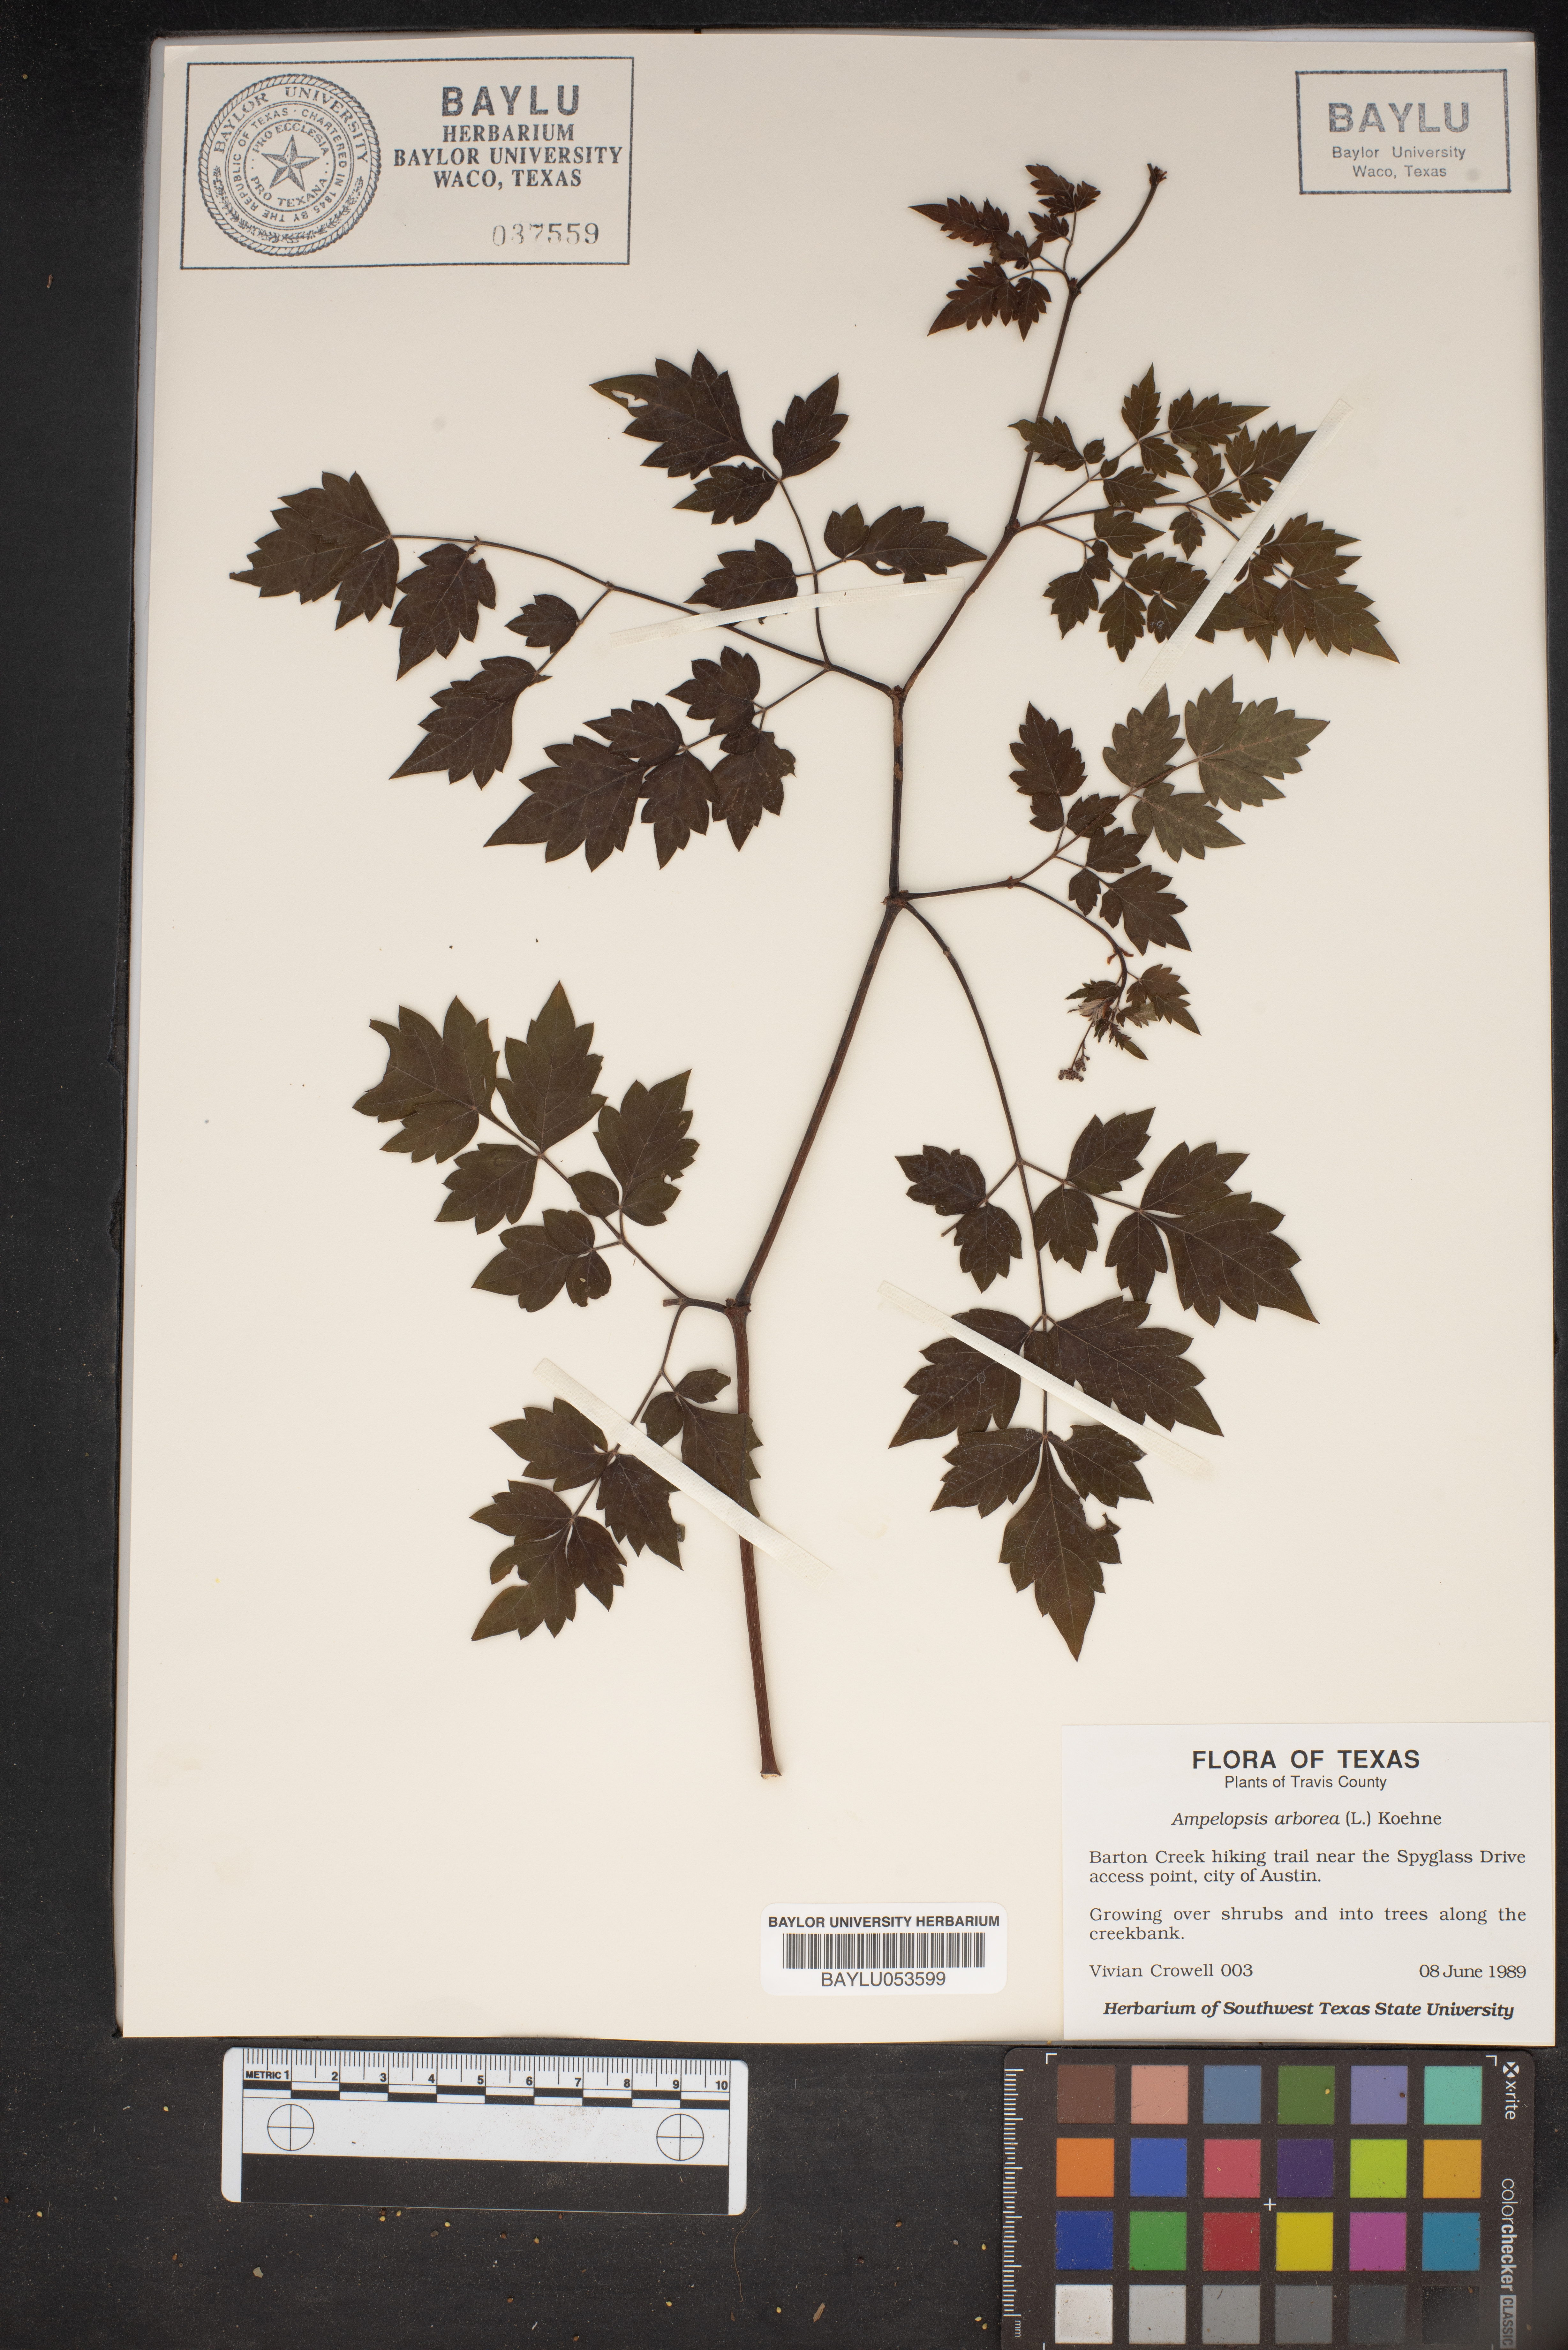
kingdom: Plantae
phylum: Tracheophyta
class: Magnoliopsida
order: Vitales
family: Vitaceae
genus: Nekemias
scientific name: Nekemias arborea
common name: Peppervine
